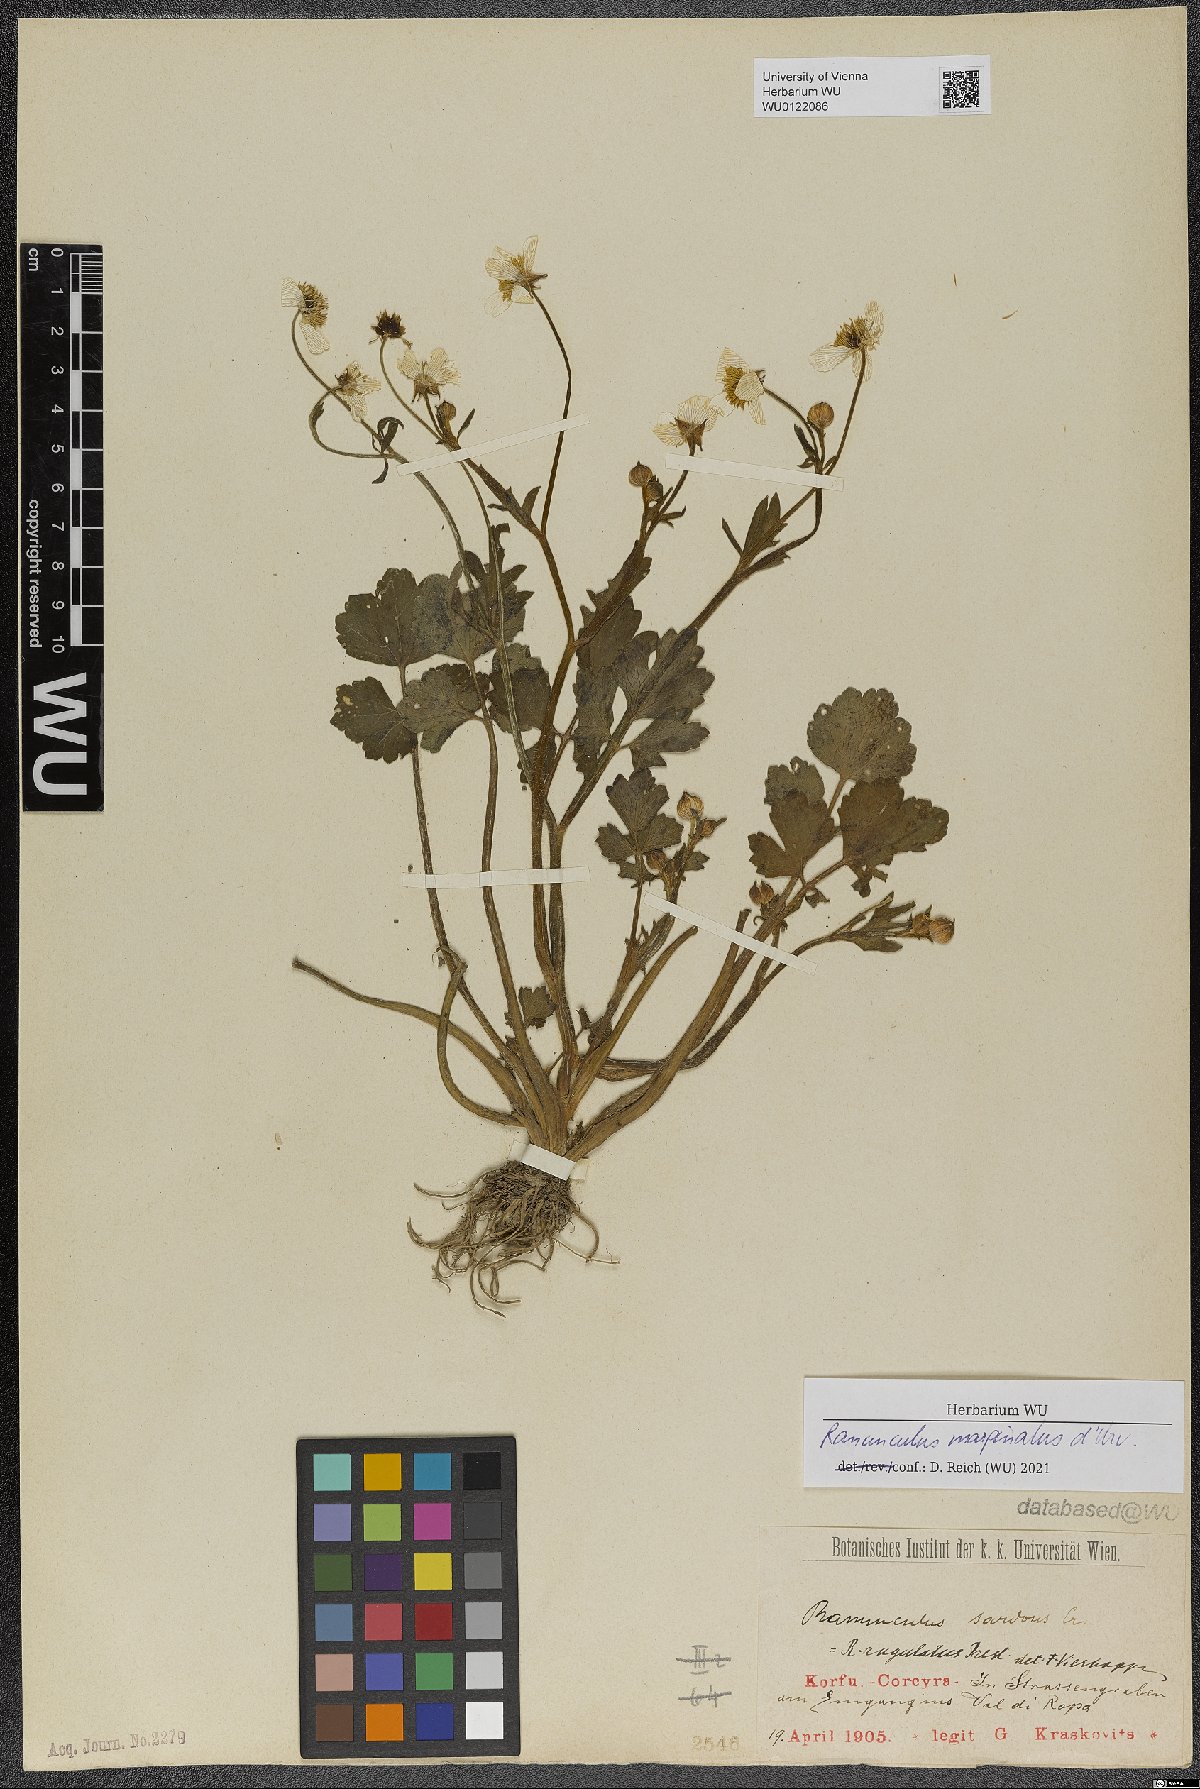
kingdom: Plantae
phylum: Tracheophyta
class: Magnoliopsida
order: Ranunculales
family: Ranunculaceae
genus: Ranunculus
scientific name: Ranunculus marginatus
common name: St. martin's buttercup
